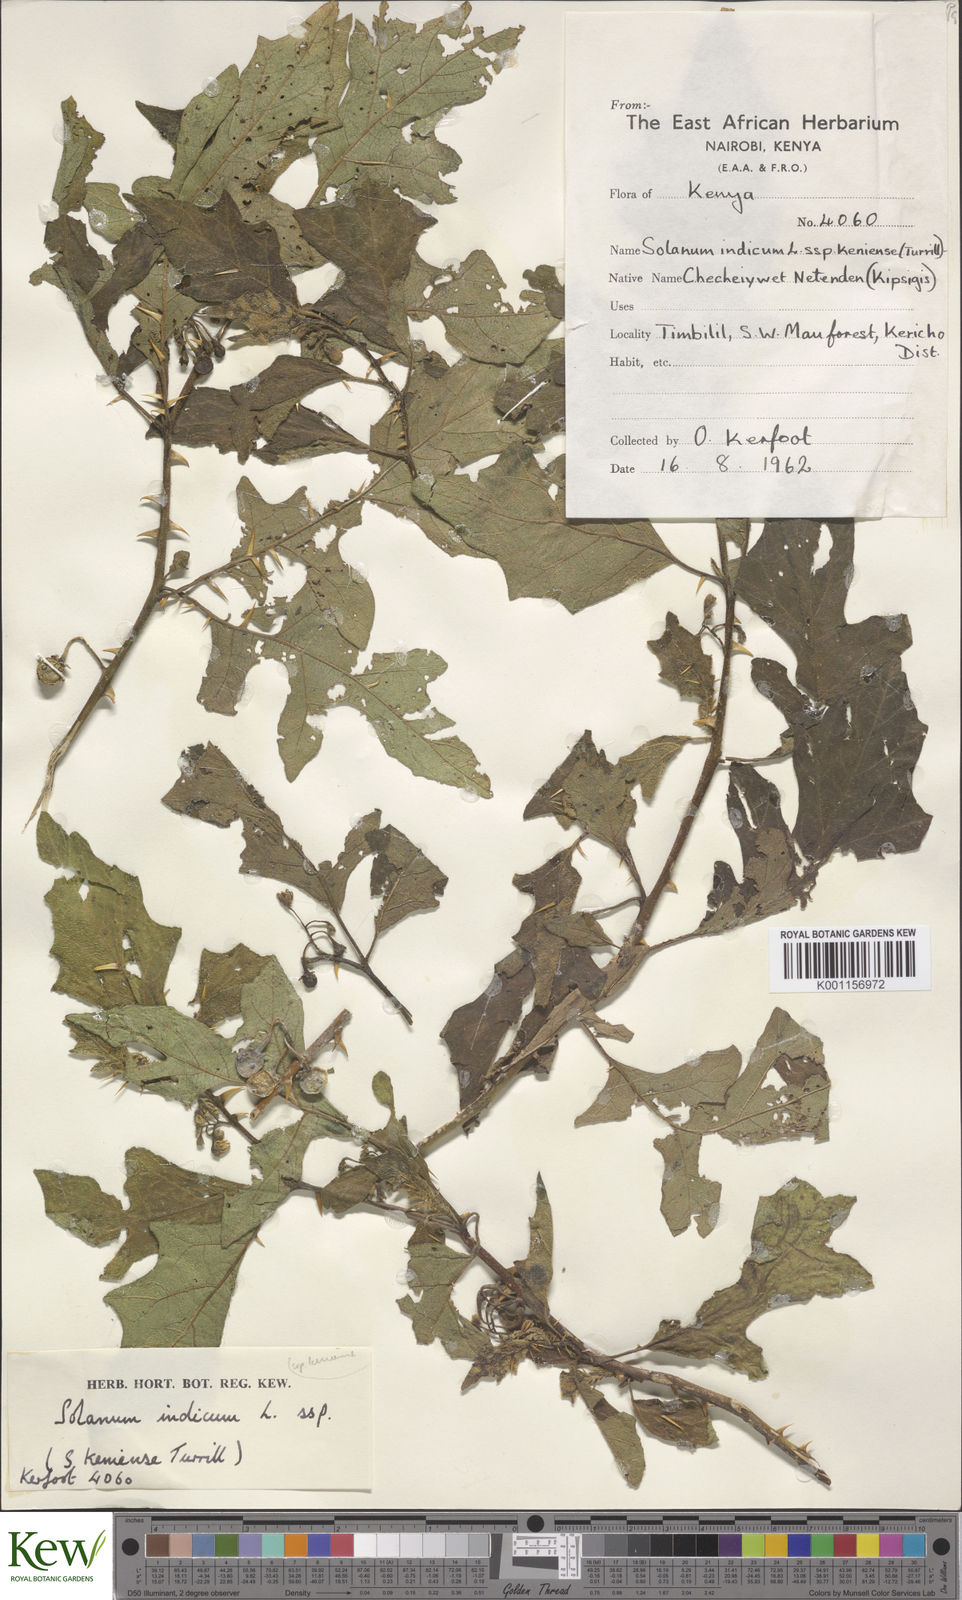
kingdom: Plantae
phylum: Tracheophyta
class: Magnoliopsida
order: Solanales
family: Solanaceae
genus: Solanum
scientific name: Solanum anguivi
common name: Forest bitterberry
